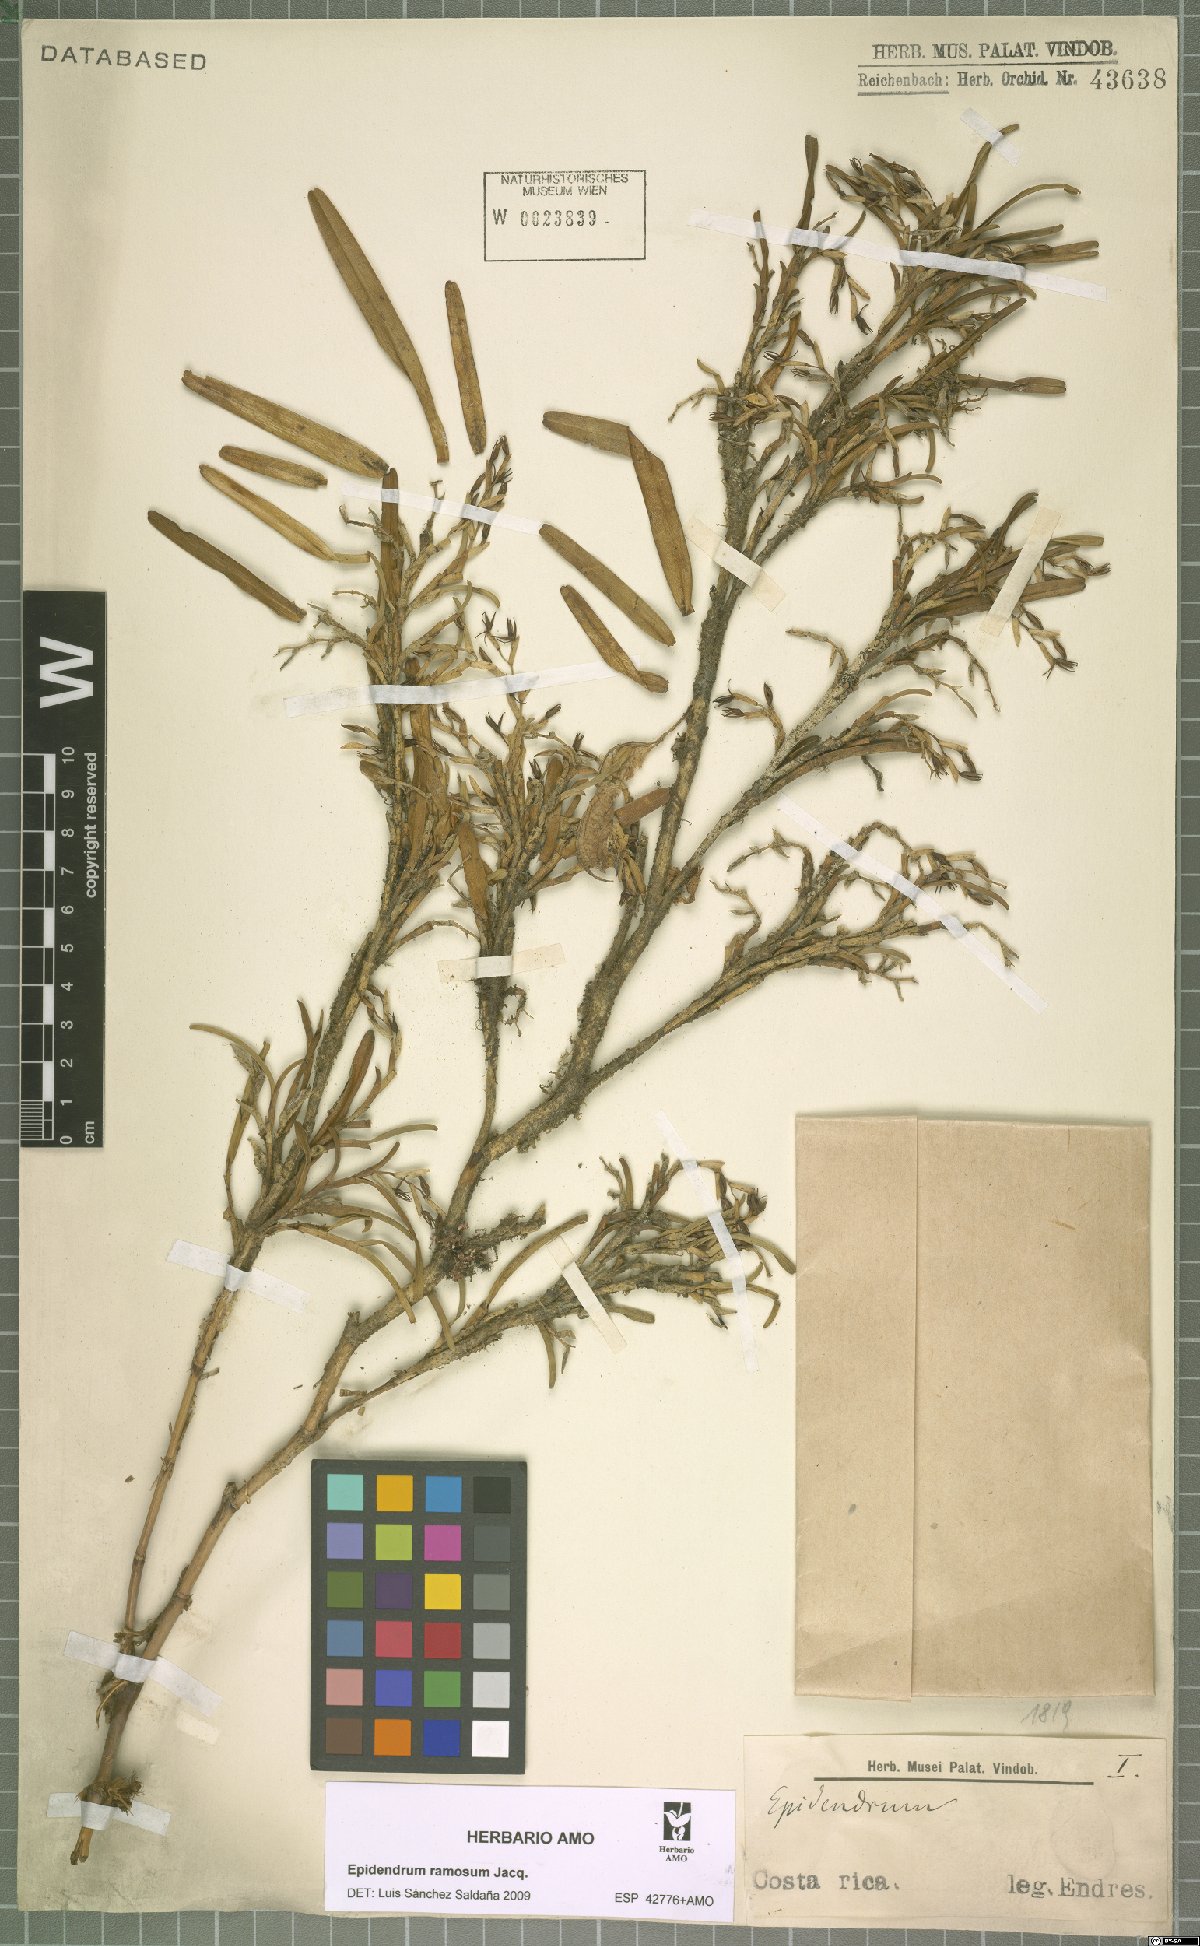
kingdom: Plantae
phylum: Tracheophyta
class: Liliopsida
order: Asparagales
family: Orchidaceae
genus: Epidendrum
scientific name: Epidendrum ramosum
